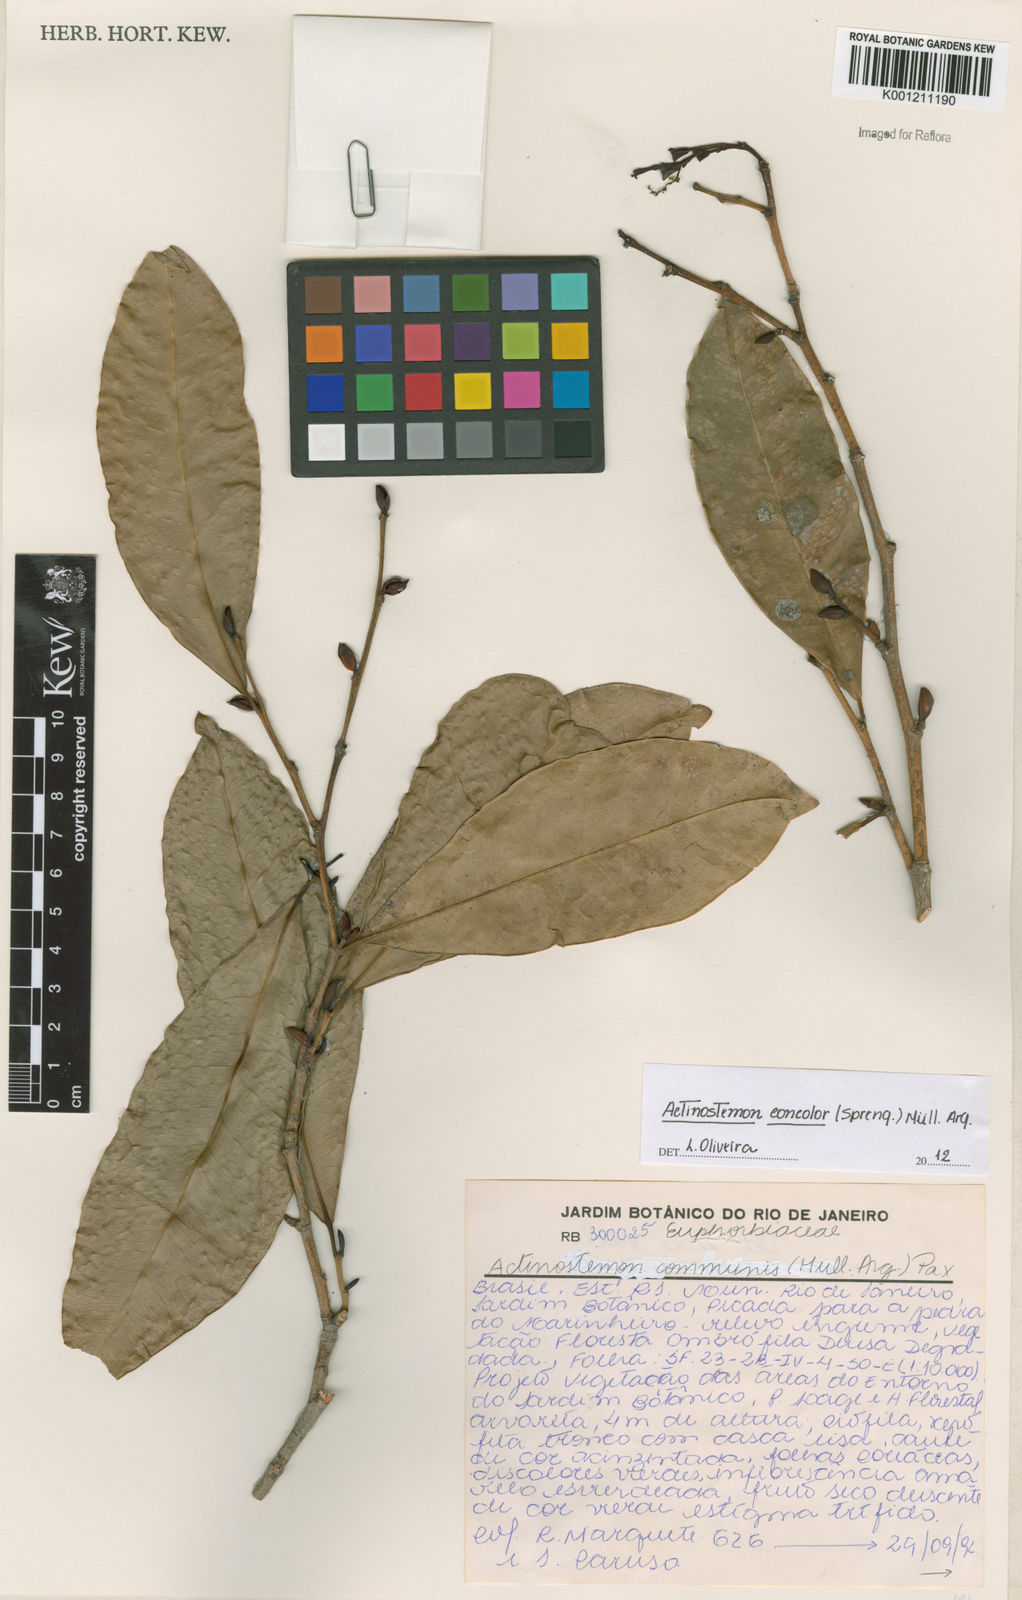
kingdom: Plantae
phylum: Tracheophyta
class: Magnoliopsida
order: Malpighiales
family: Euphorbiaceae
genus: Actinostemon
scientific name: Actinostemon
